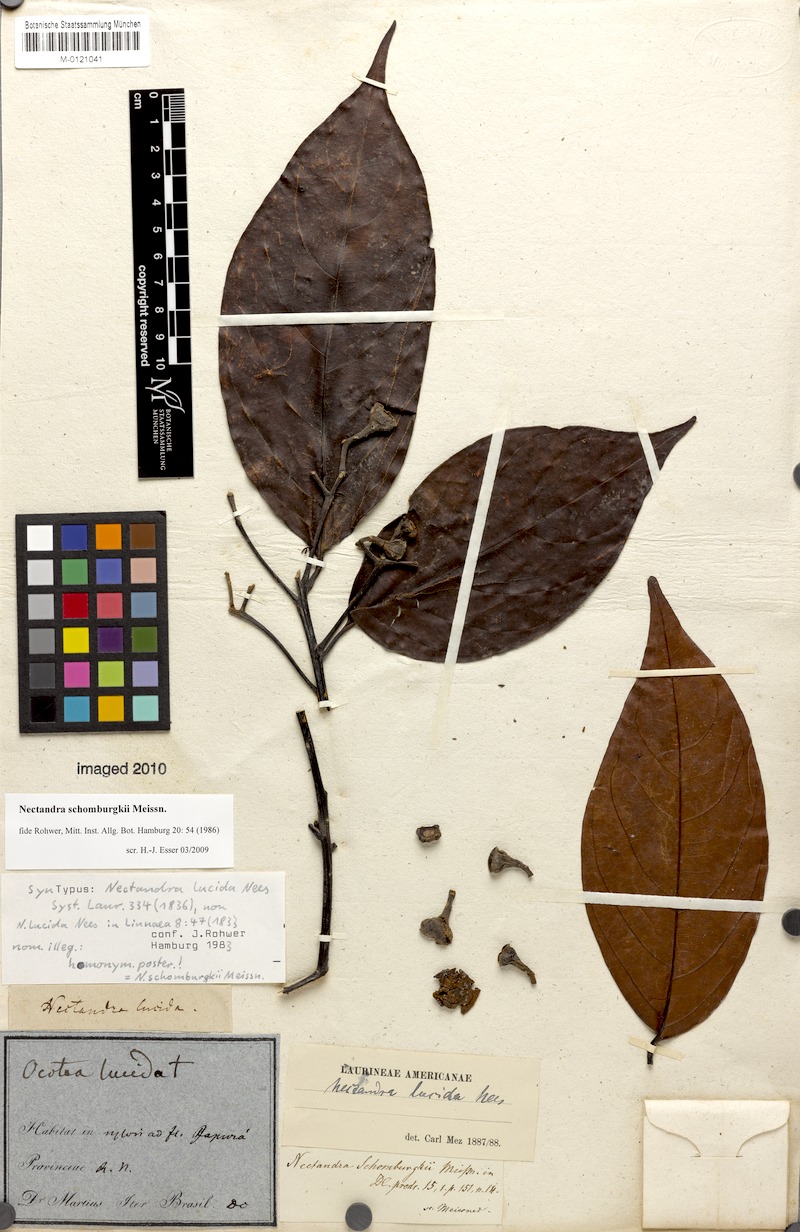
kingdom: Plantae
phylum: Tracheophyta
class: Magnoliopsida
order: Laurales
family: Lauraceae
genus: Nectandra
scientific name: Nectandra hihua
